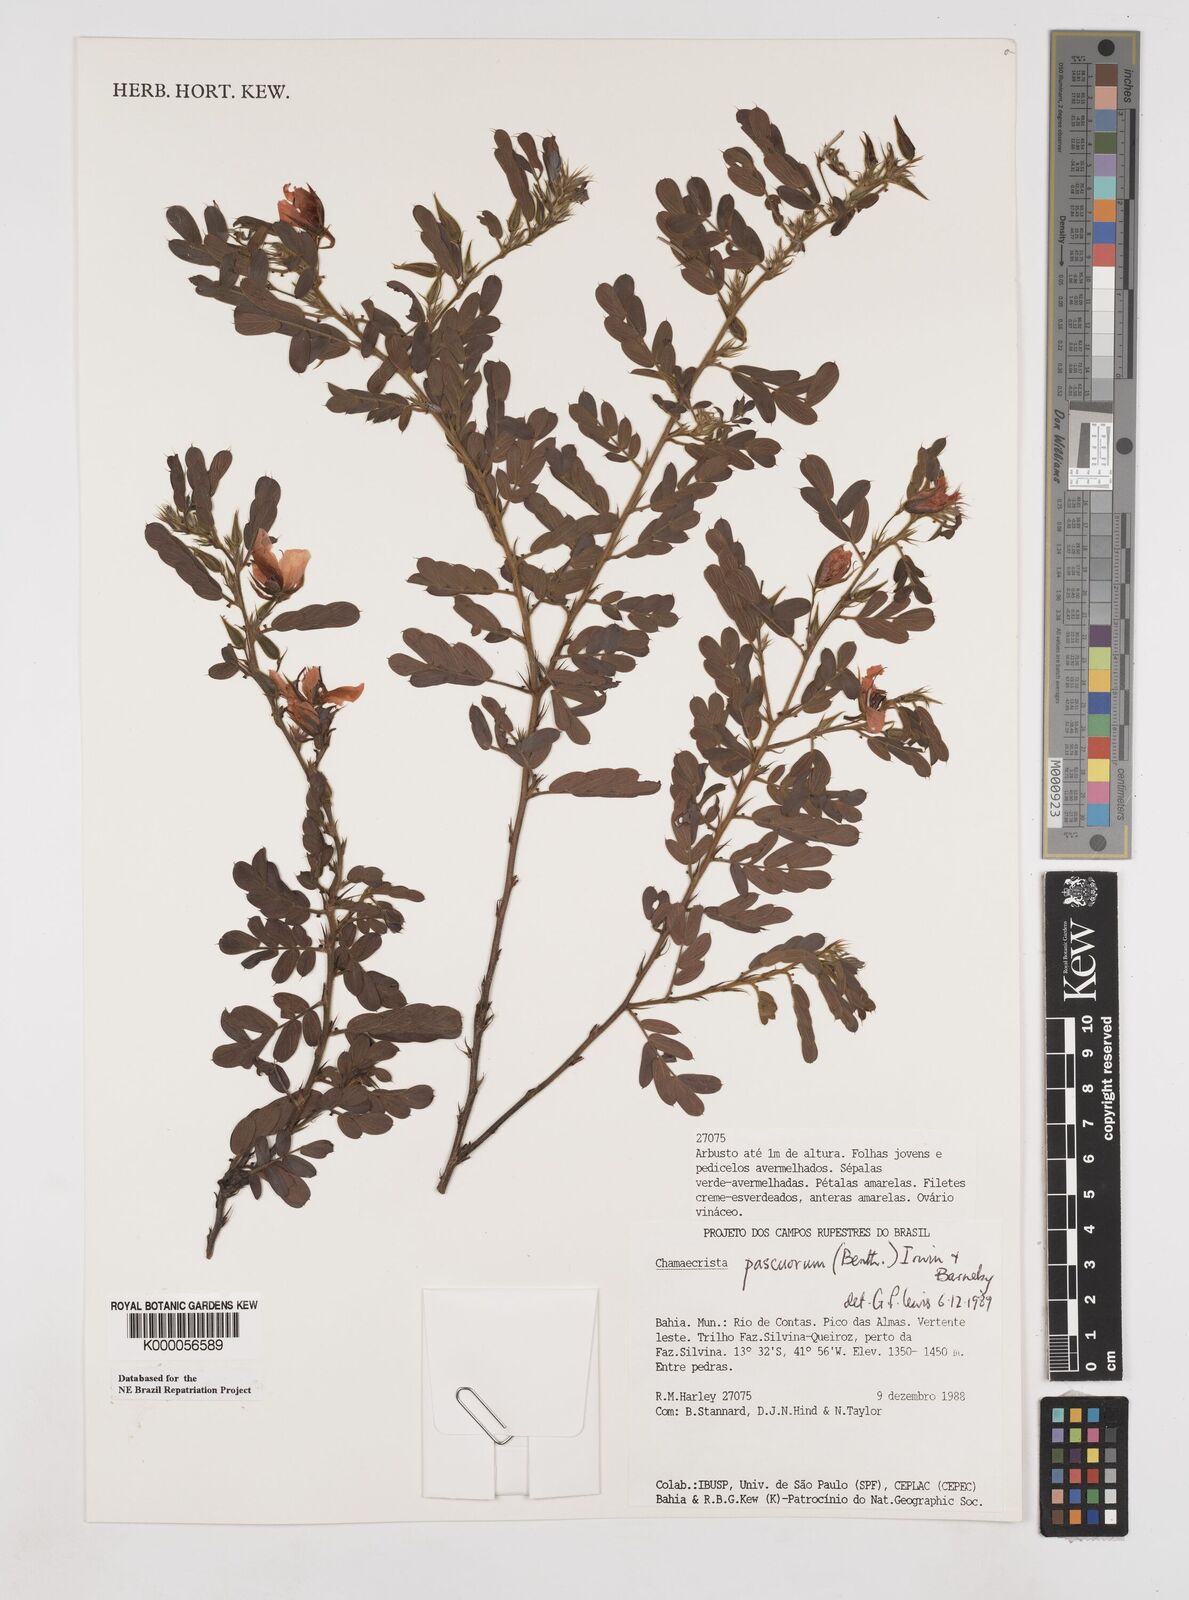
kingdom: Plantae
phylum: Tracheophyta
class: Magnoliopsida
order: Fabales
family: Fabaceae
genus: Chamaecrista
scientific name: Chamaecrista pascuorum
